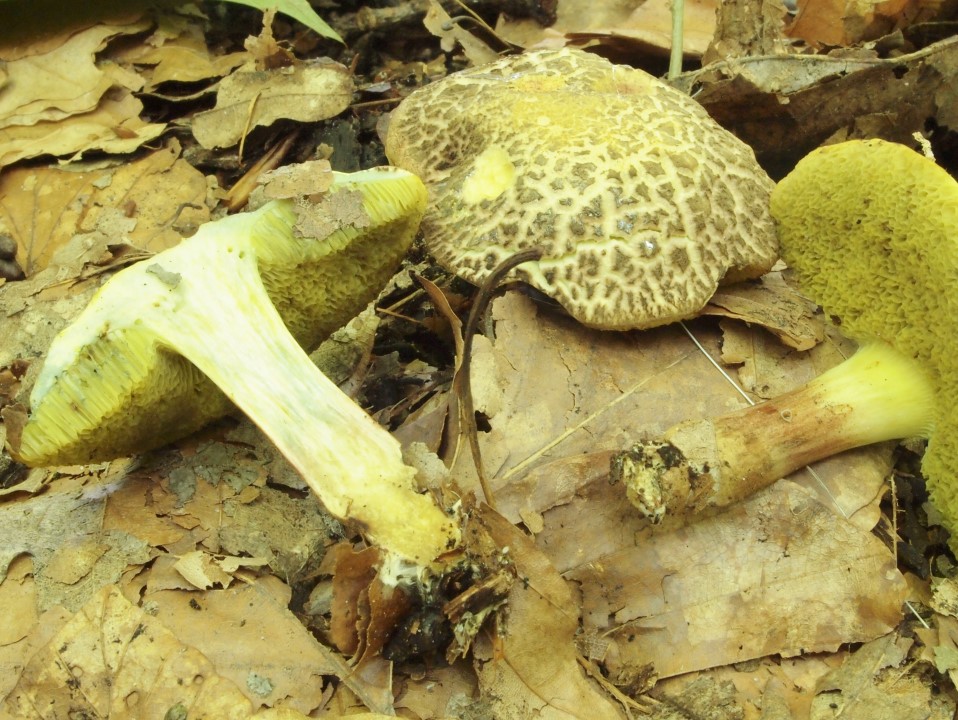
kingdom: Fungi
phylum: Basidiomycota
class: Agaricomycetes
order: Boletales
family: Boletaceae
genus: Xerocomellus
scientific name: Xerocomellus porosporus
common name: hvidsprukken rørhat
